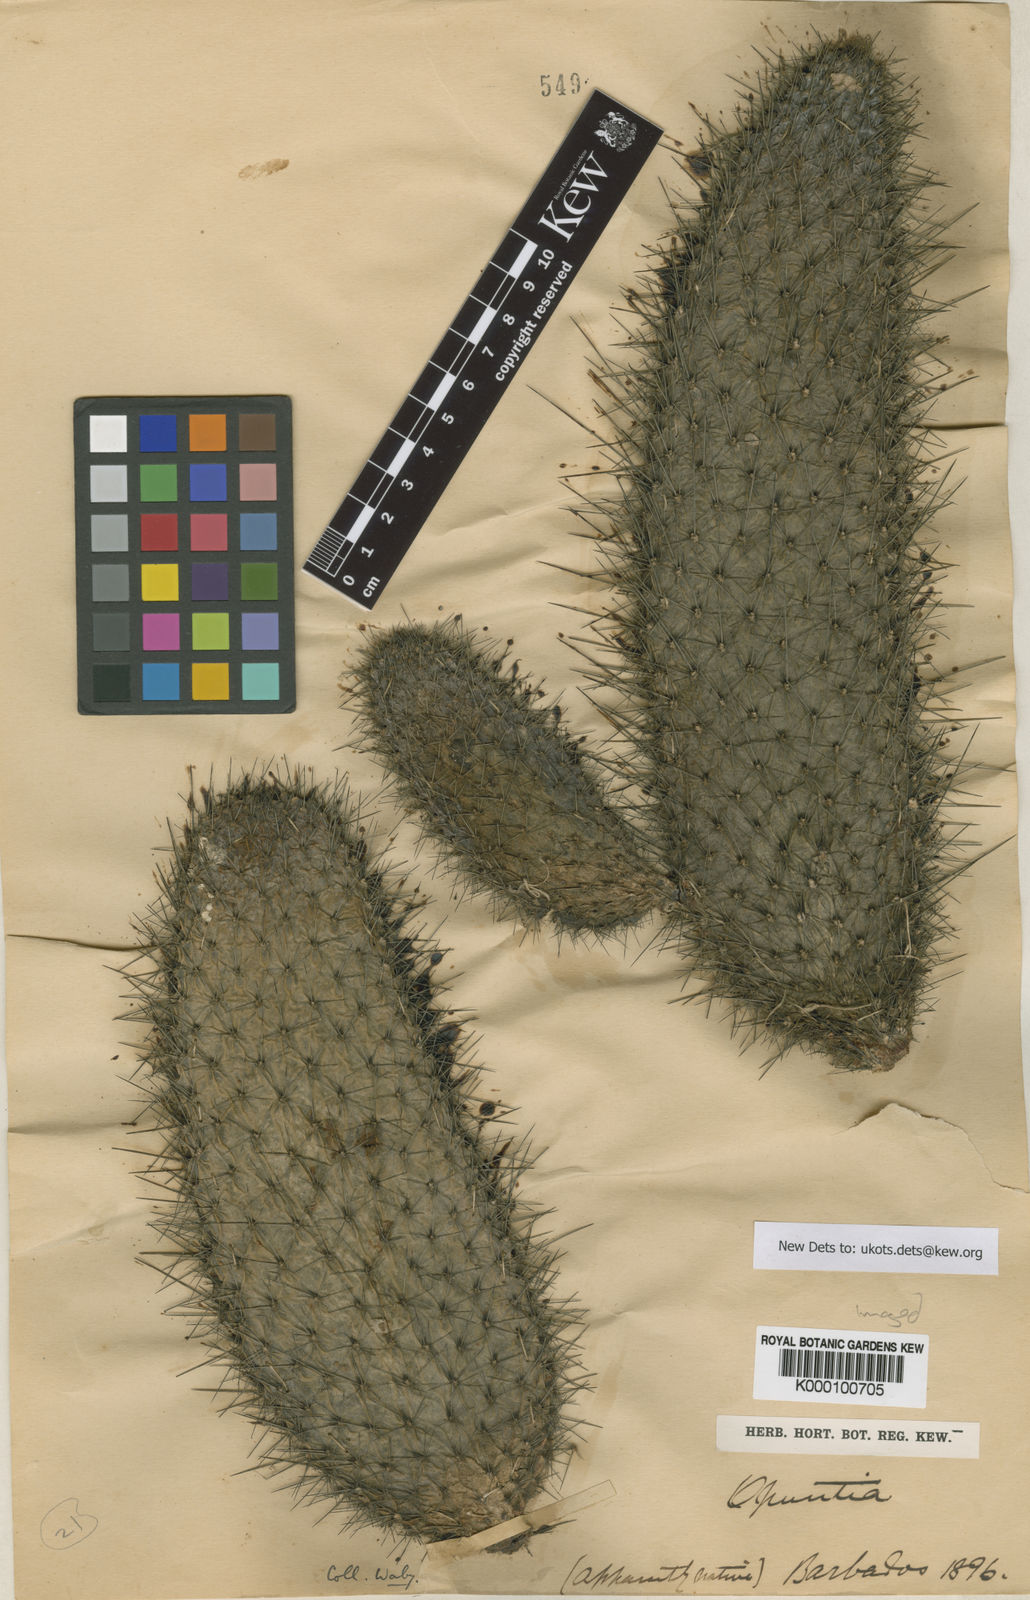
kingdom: Plantae
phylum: Tracheophyta
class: Magnoliopsida
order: Caryophyllales
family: Cactaceae
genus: Consolea
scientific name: Consolea rubescens
